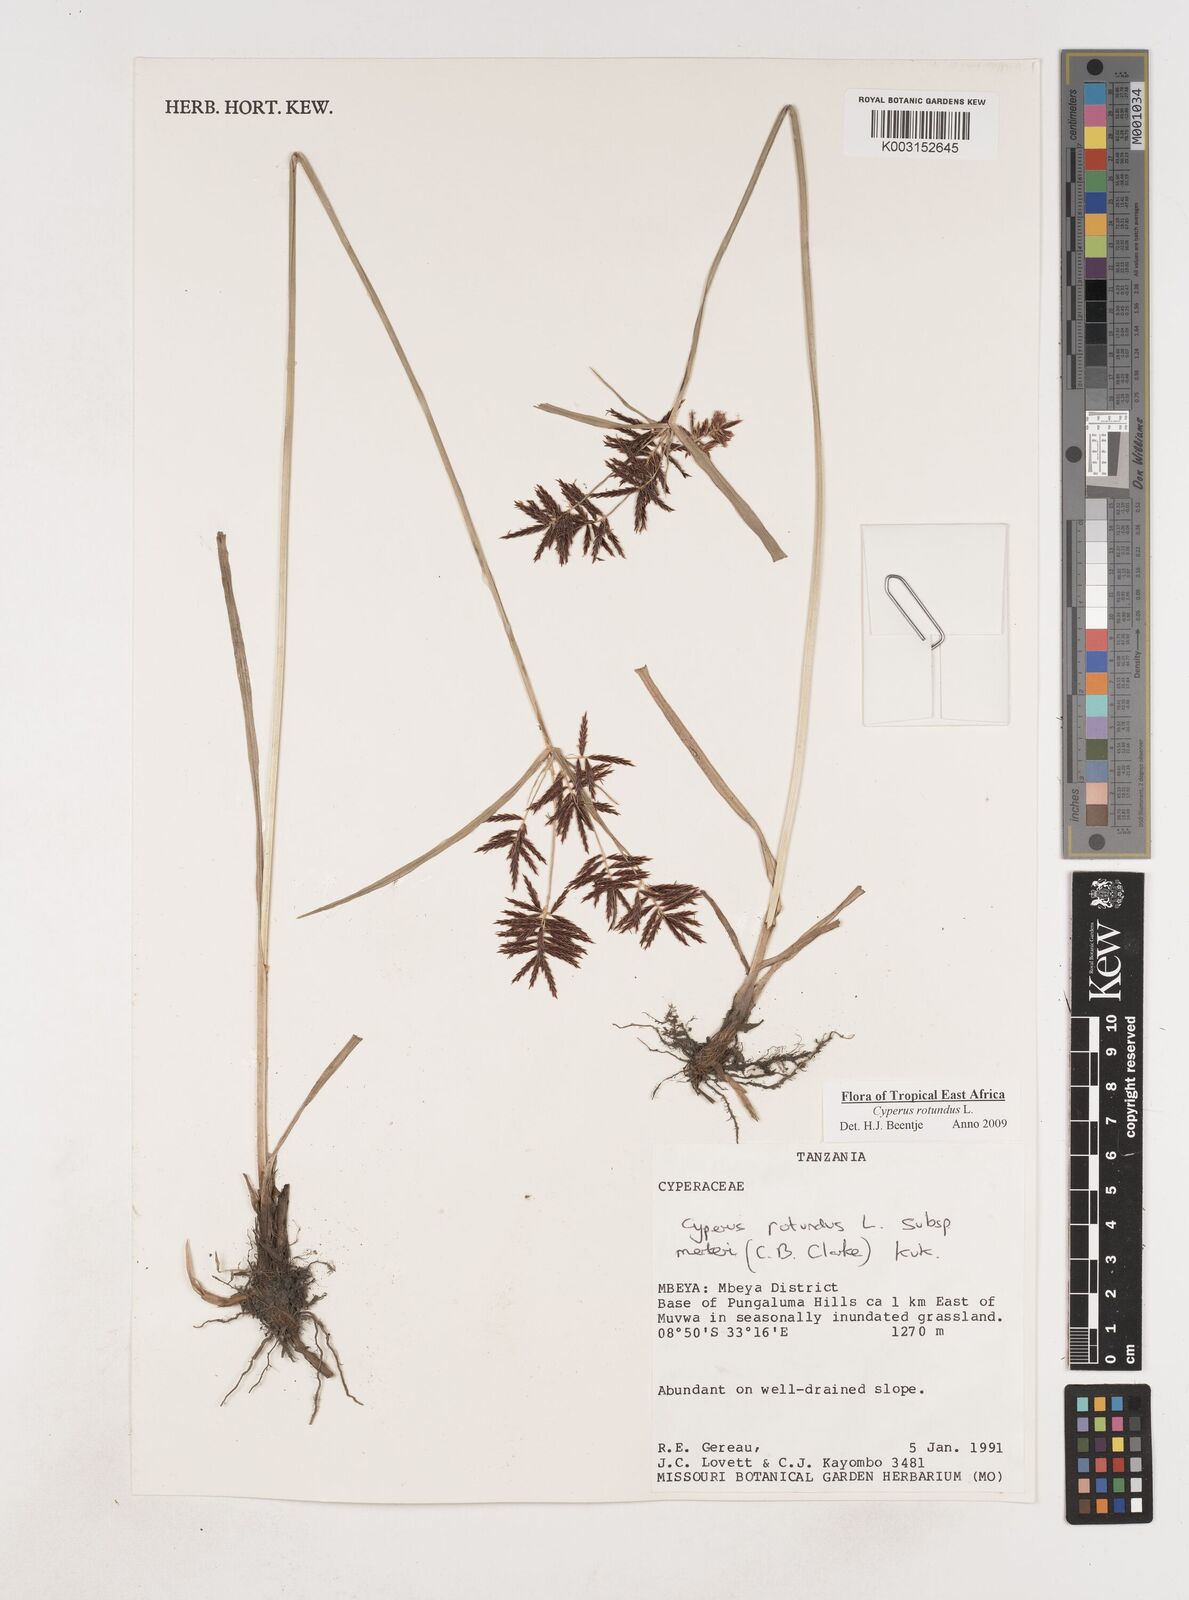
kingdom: Plantae
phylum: Tracheophyta
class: Liliopsida
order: Poales
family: Cyperaceae
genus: Cyperus
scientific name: Cyperus rotundus
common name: Nutgrass
